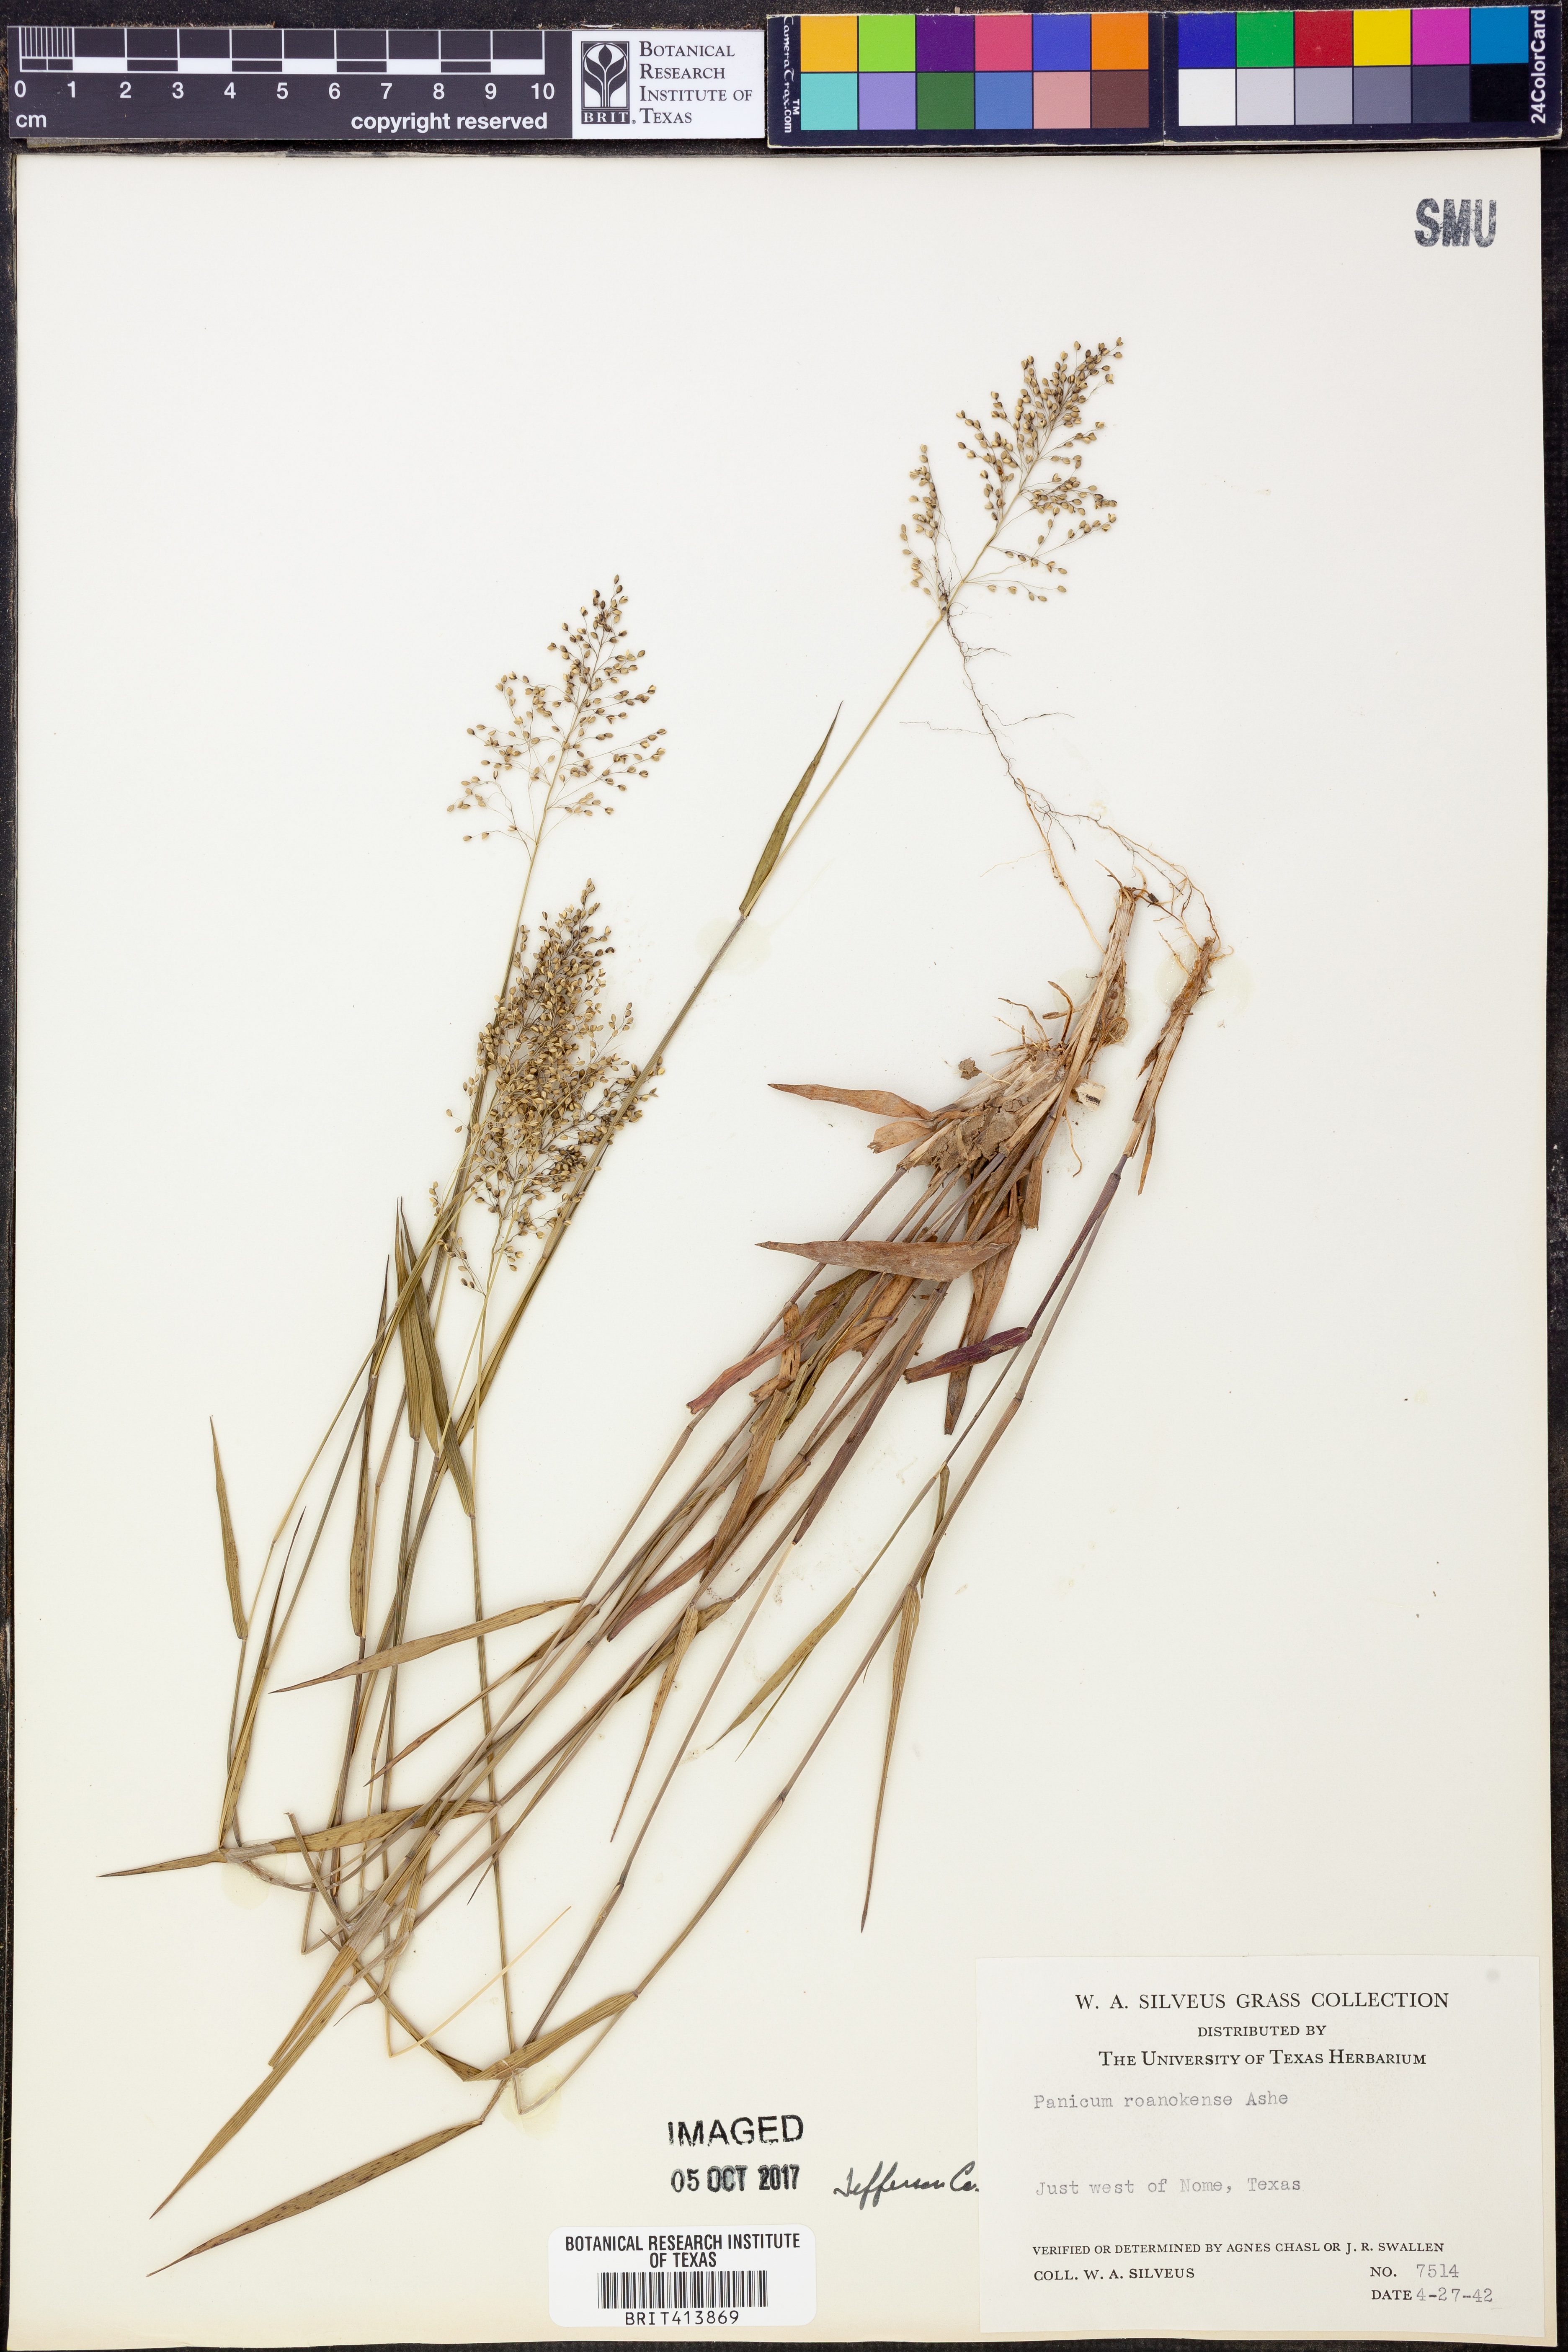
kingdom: Plantae
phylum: Tracheophyta
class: Liliopsida
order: Poales
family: Poaceae
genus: Dichanthelium
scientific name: Dichanthelium roanokense
